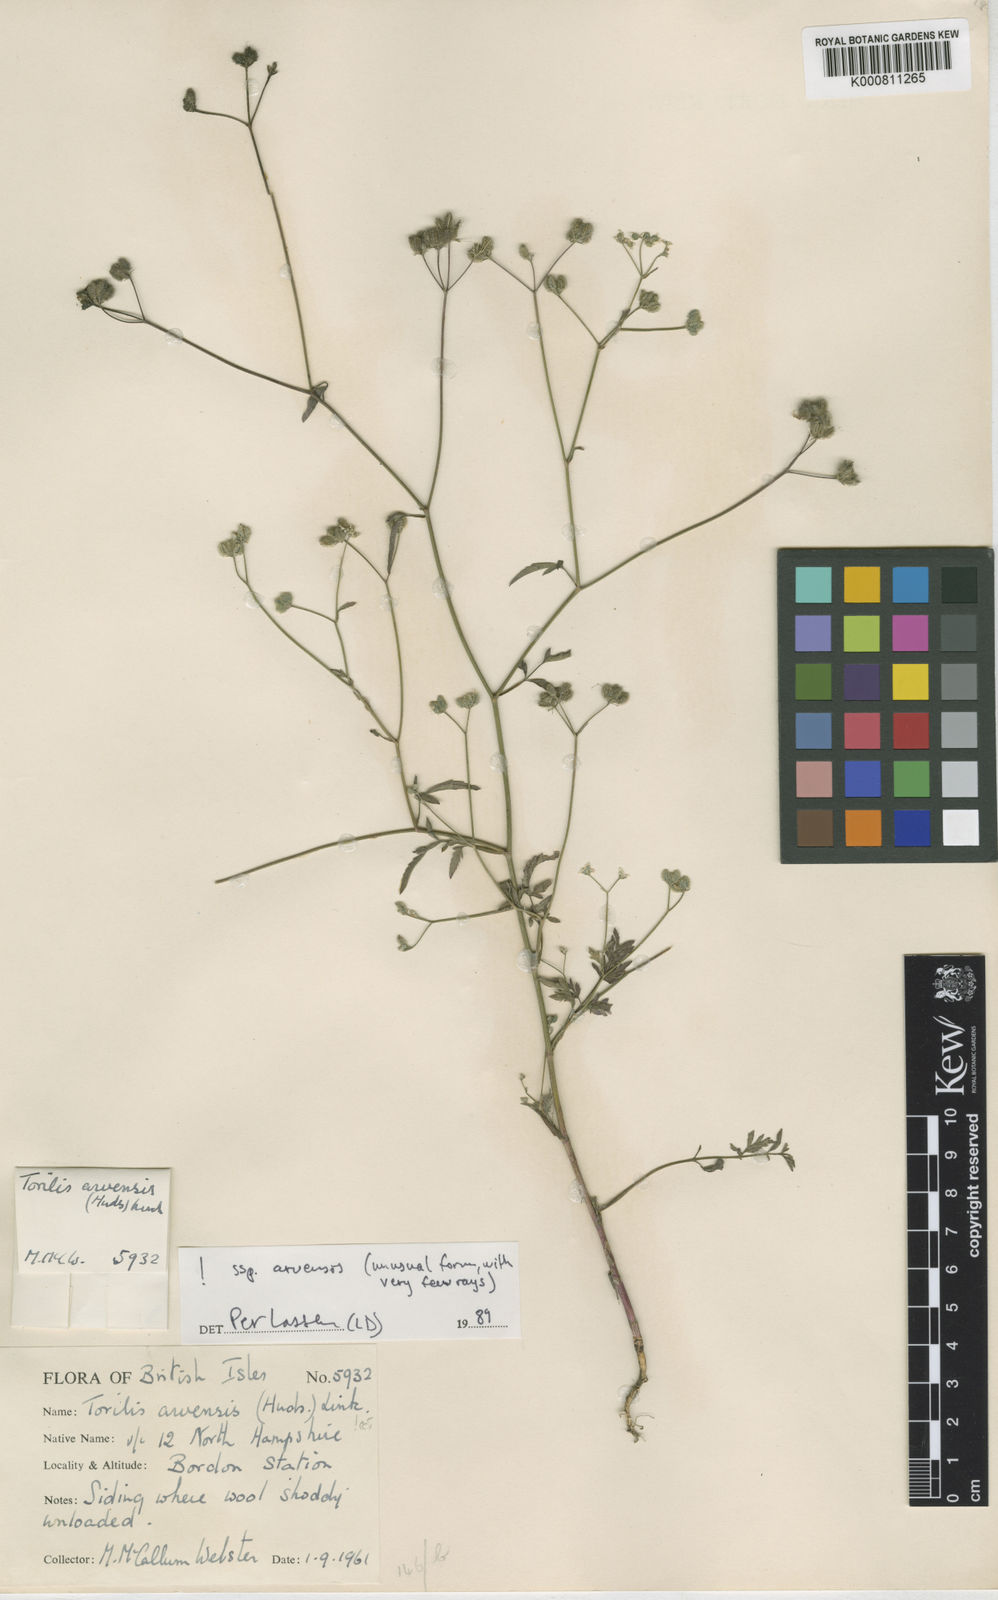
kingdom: Plantae
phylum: Tracheophyta
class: Magnoliopsida
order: Apiales
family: Apiaceae
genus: Torilis
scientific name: Torilis arvensis
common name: Spreading hedge-parsley
